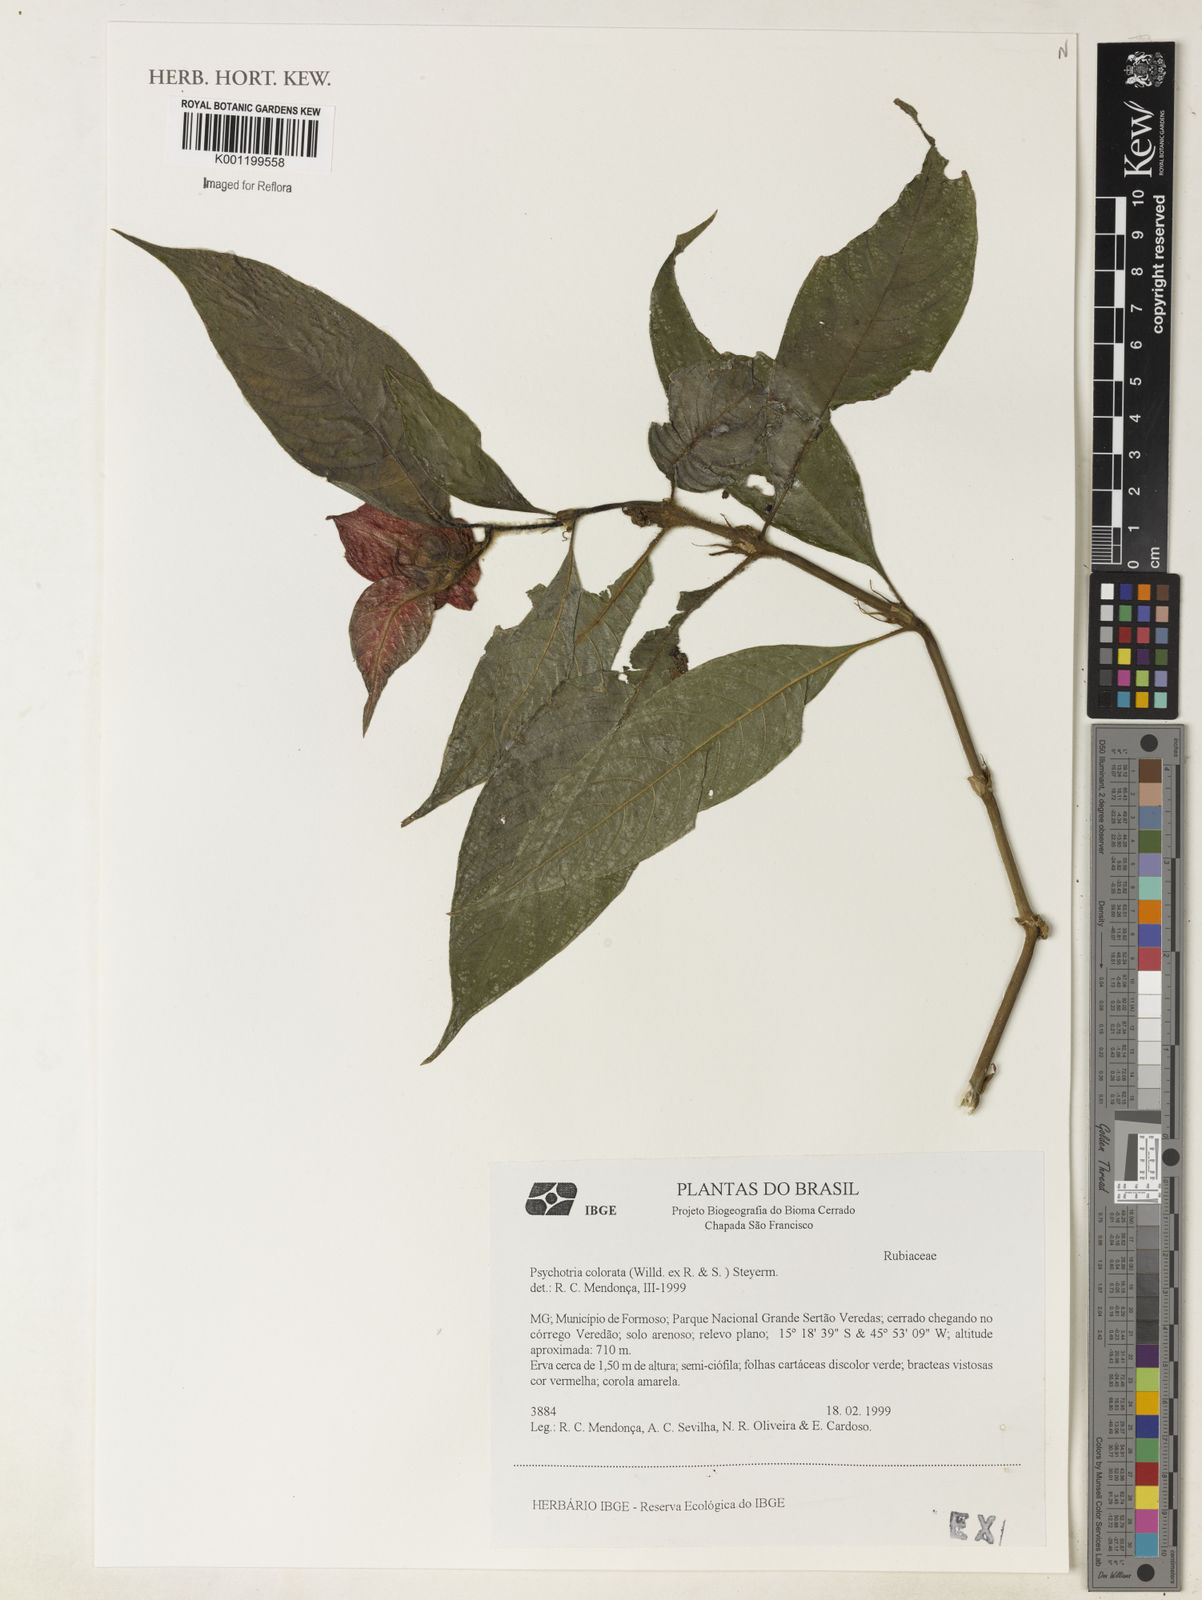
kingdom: Plantae
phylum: Tracheophyta
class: Magnoliopsida
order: Gentianales
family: Rubiaceae
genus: Psychotria
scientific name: Psychotria
